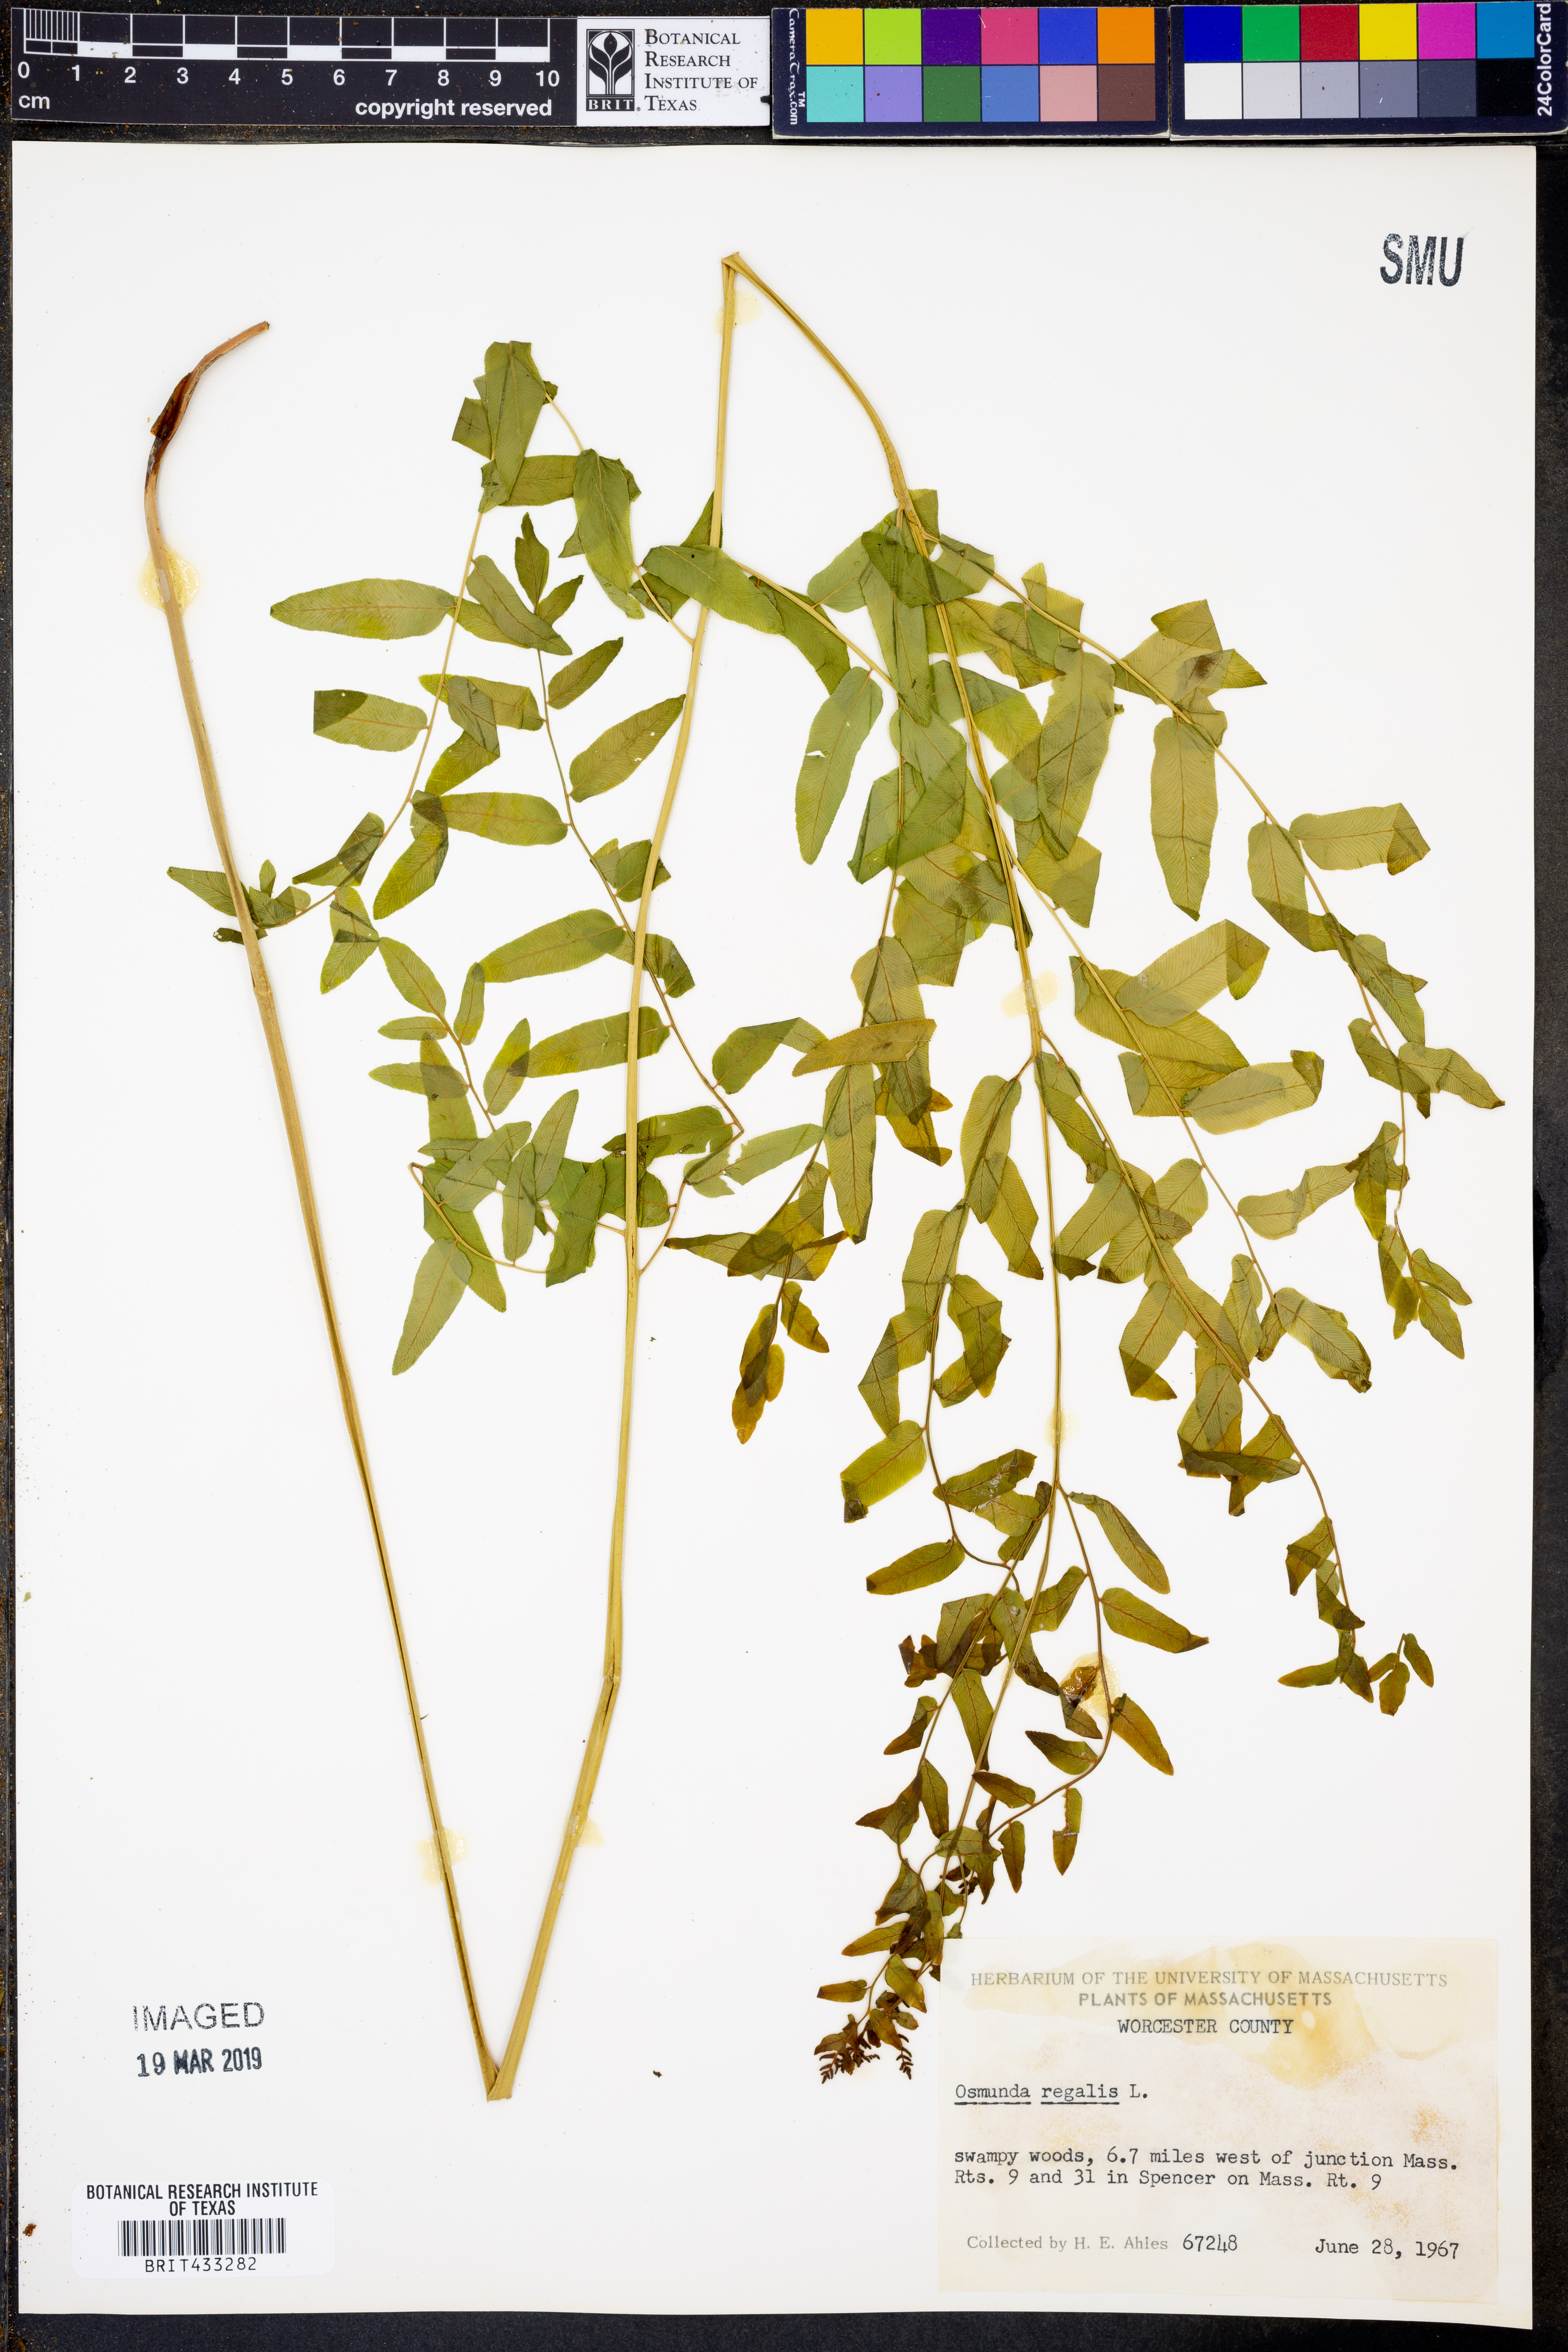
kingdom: Plantae
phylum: Tracheophyta
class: Polypodiopsida
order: Osmundales
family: Osmundaceae
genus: Osmunda
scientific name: Osmunda regalis
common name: Royal fern
